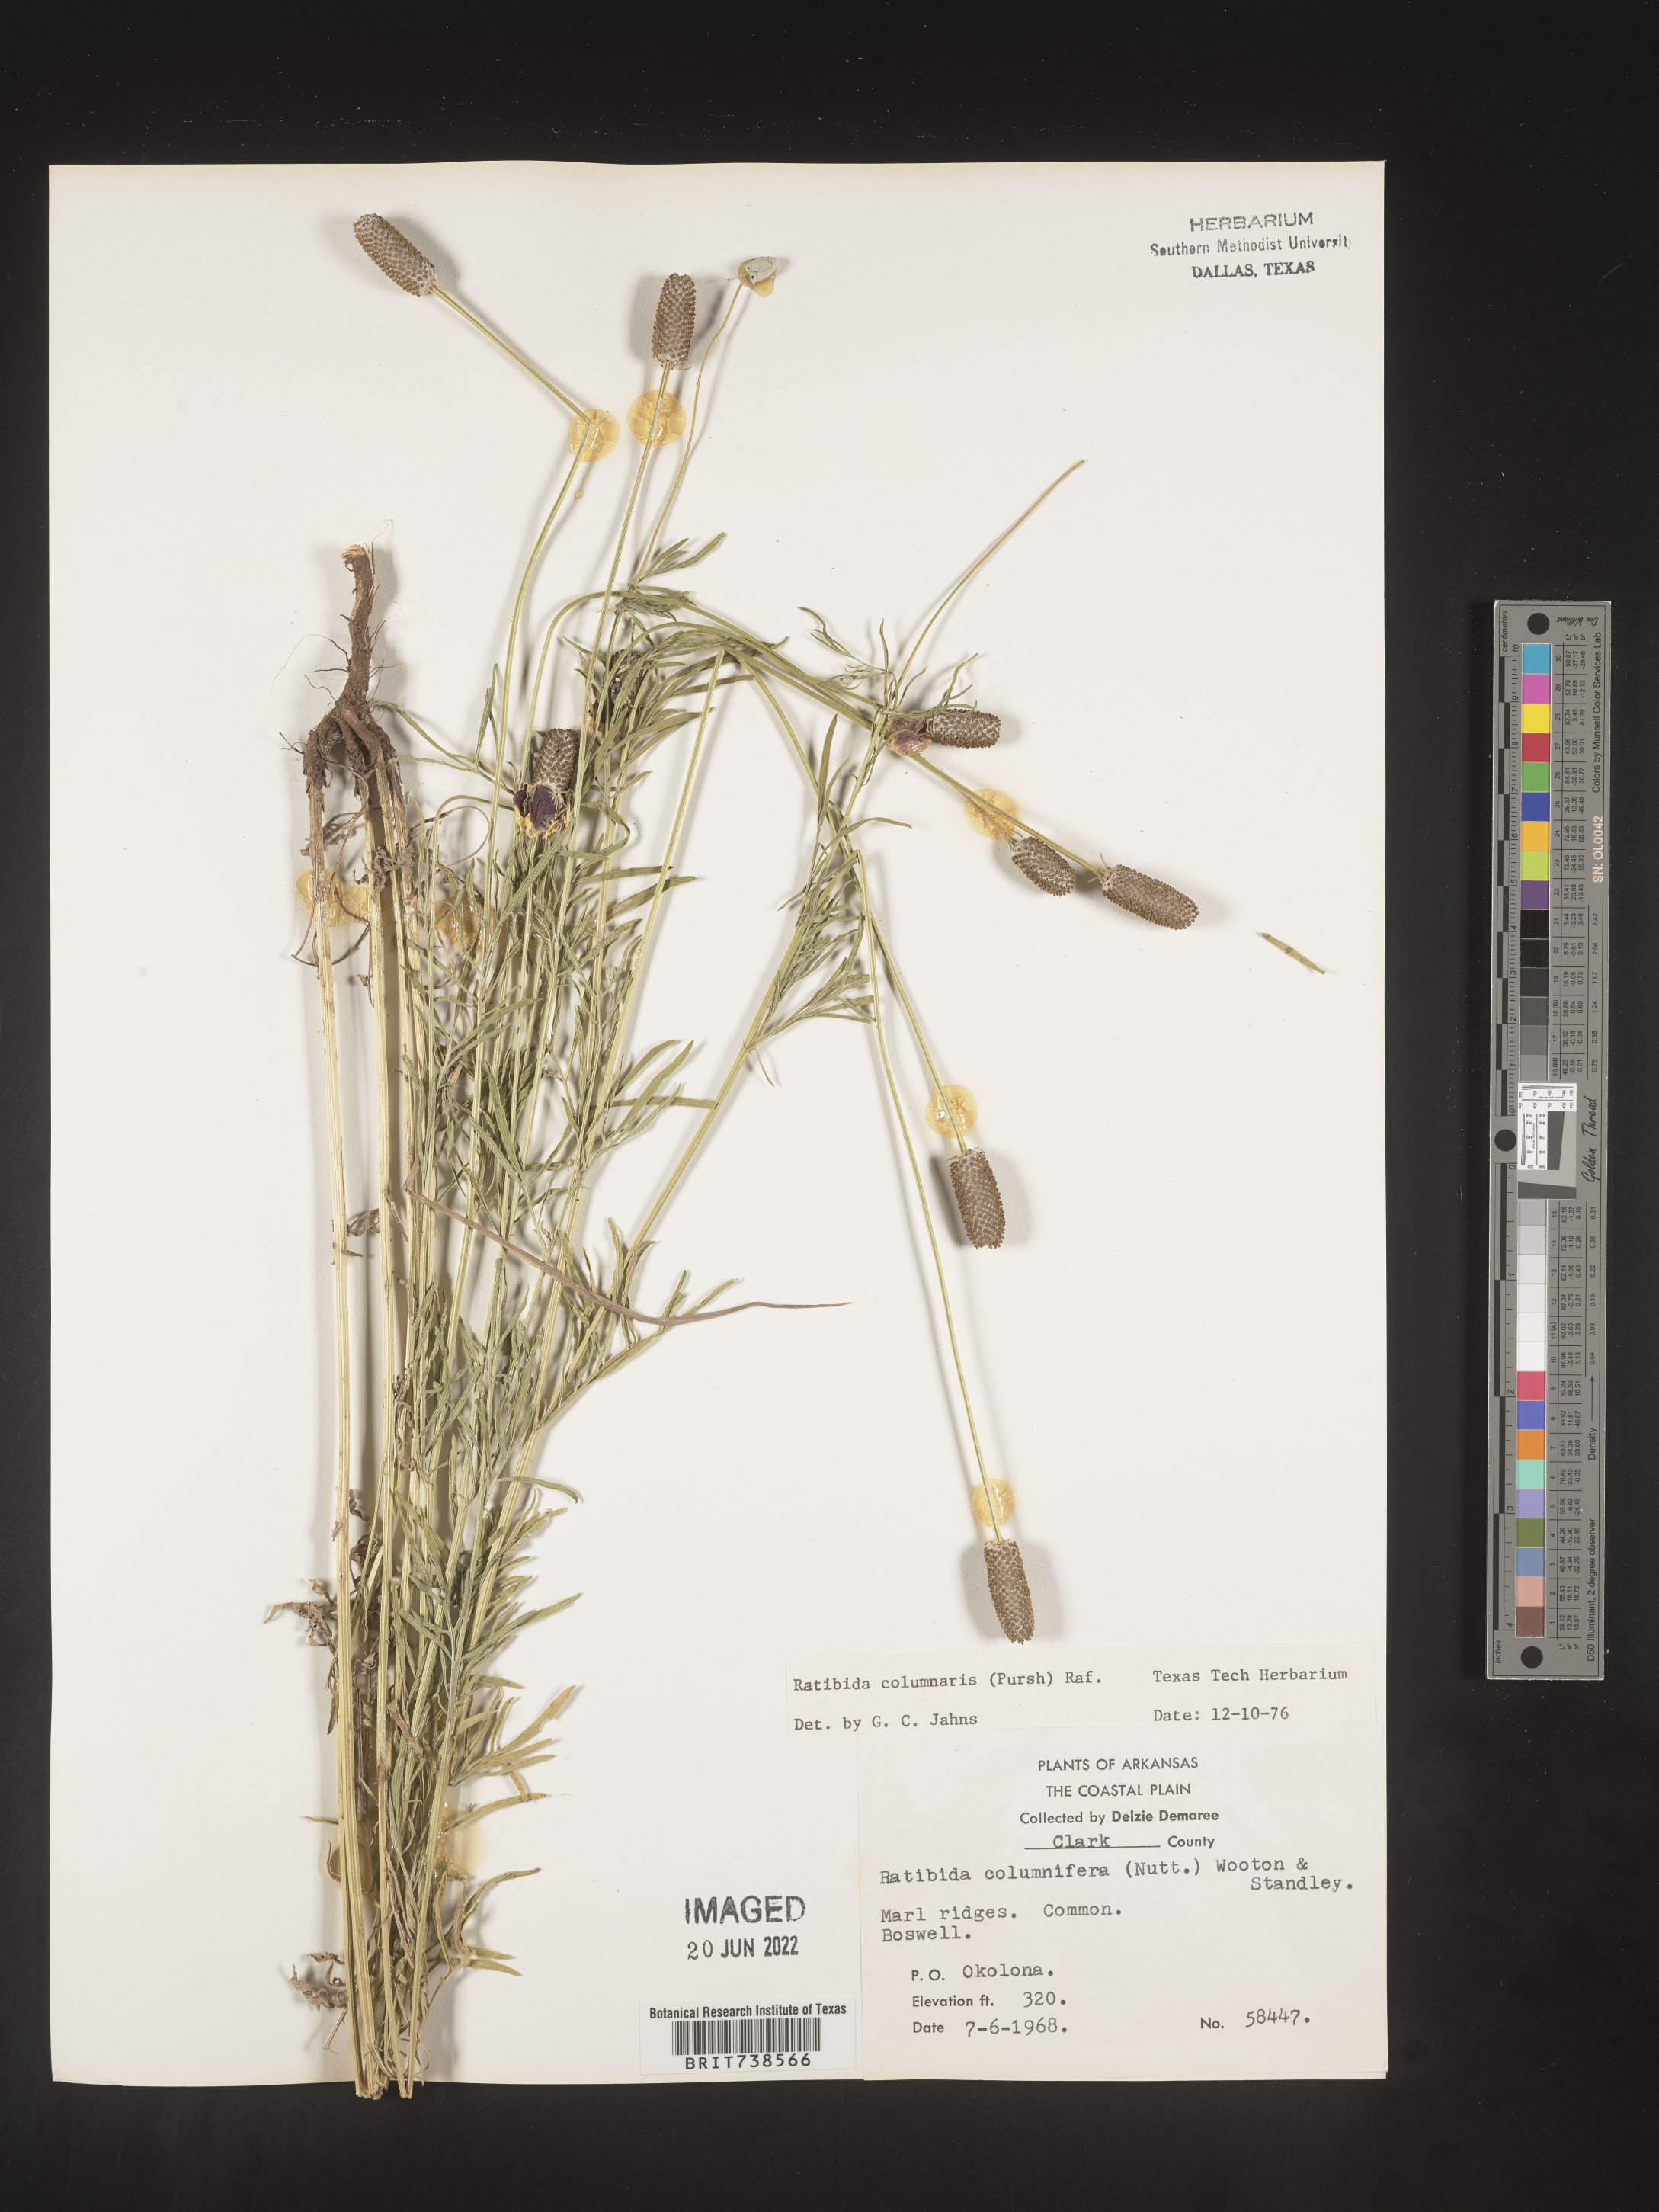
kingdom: Plantae
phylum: Tracheophyta
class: Magnoliopsida
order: Asterales
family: Asteraceae
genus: Ratibida
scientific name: Ratibida columnifera
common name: Prairie coneflower
